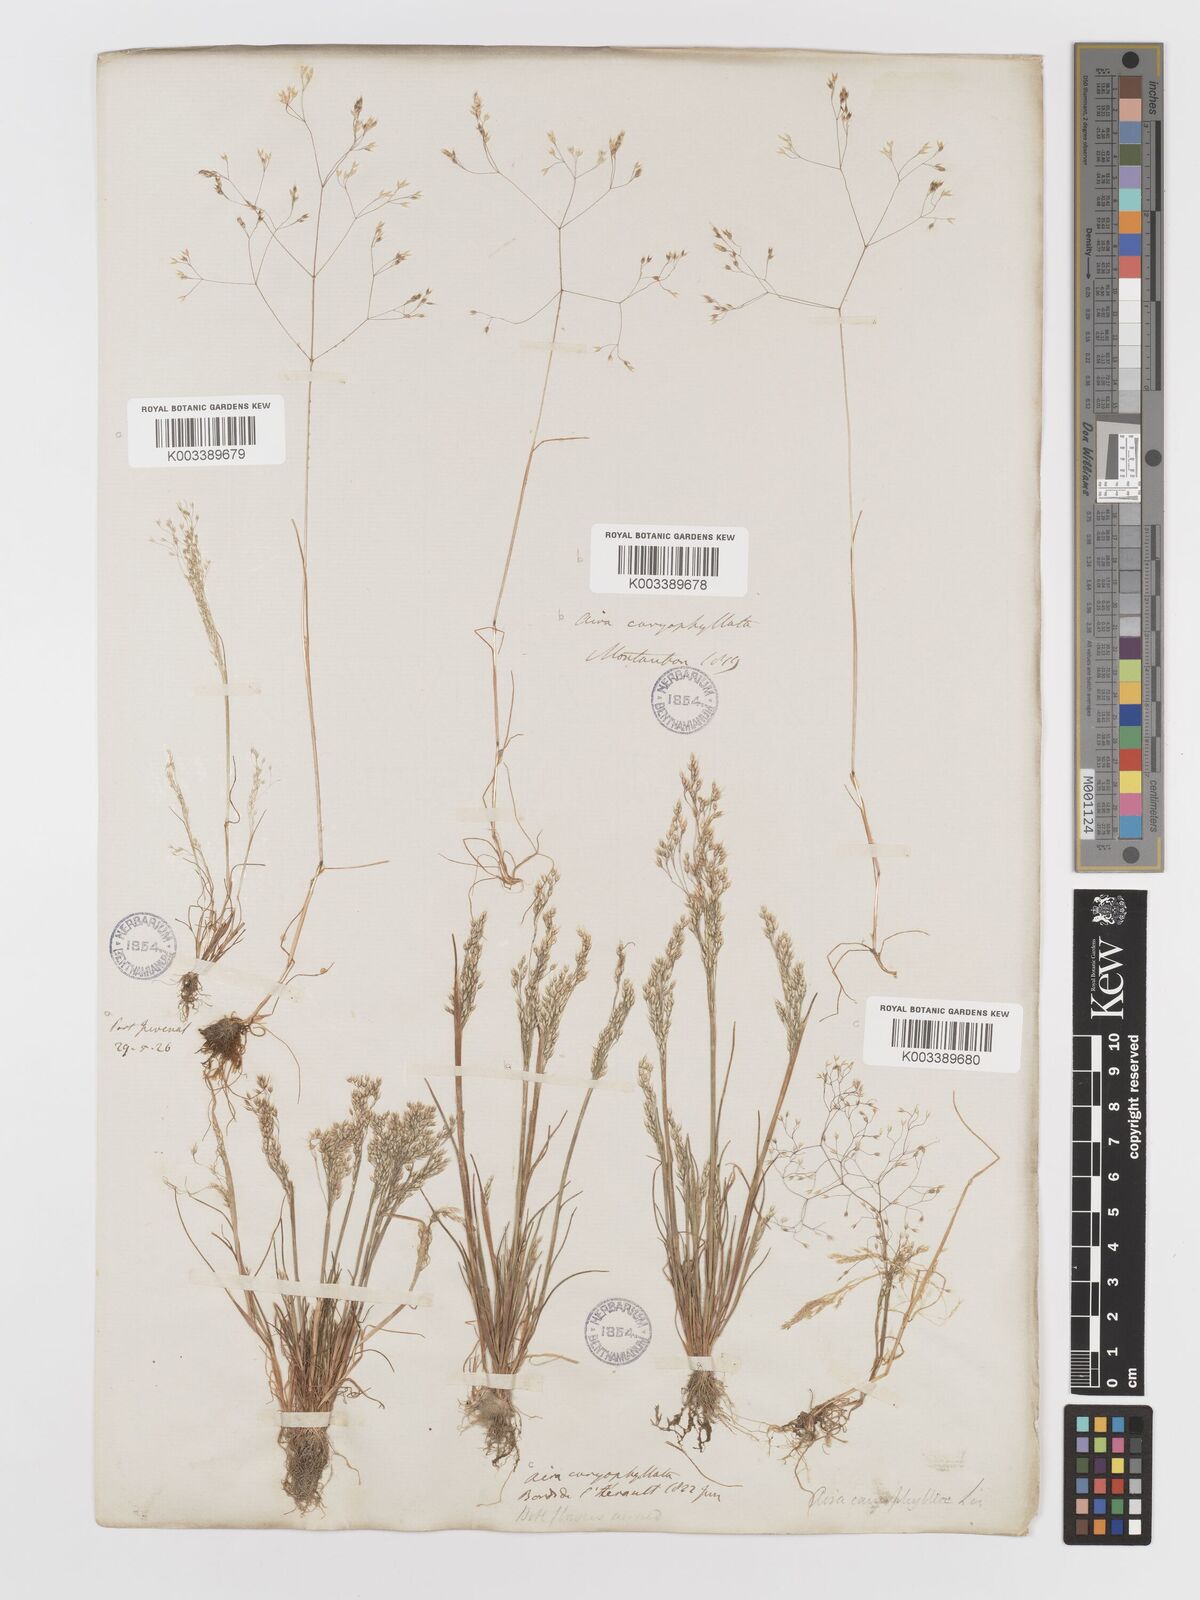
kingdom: Plantae
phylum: Tracheophyta
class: Liliopsida
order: Poales
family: Poaceae
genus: Aira
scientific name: Aira caryophyllea
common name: Silver hairgrass
